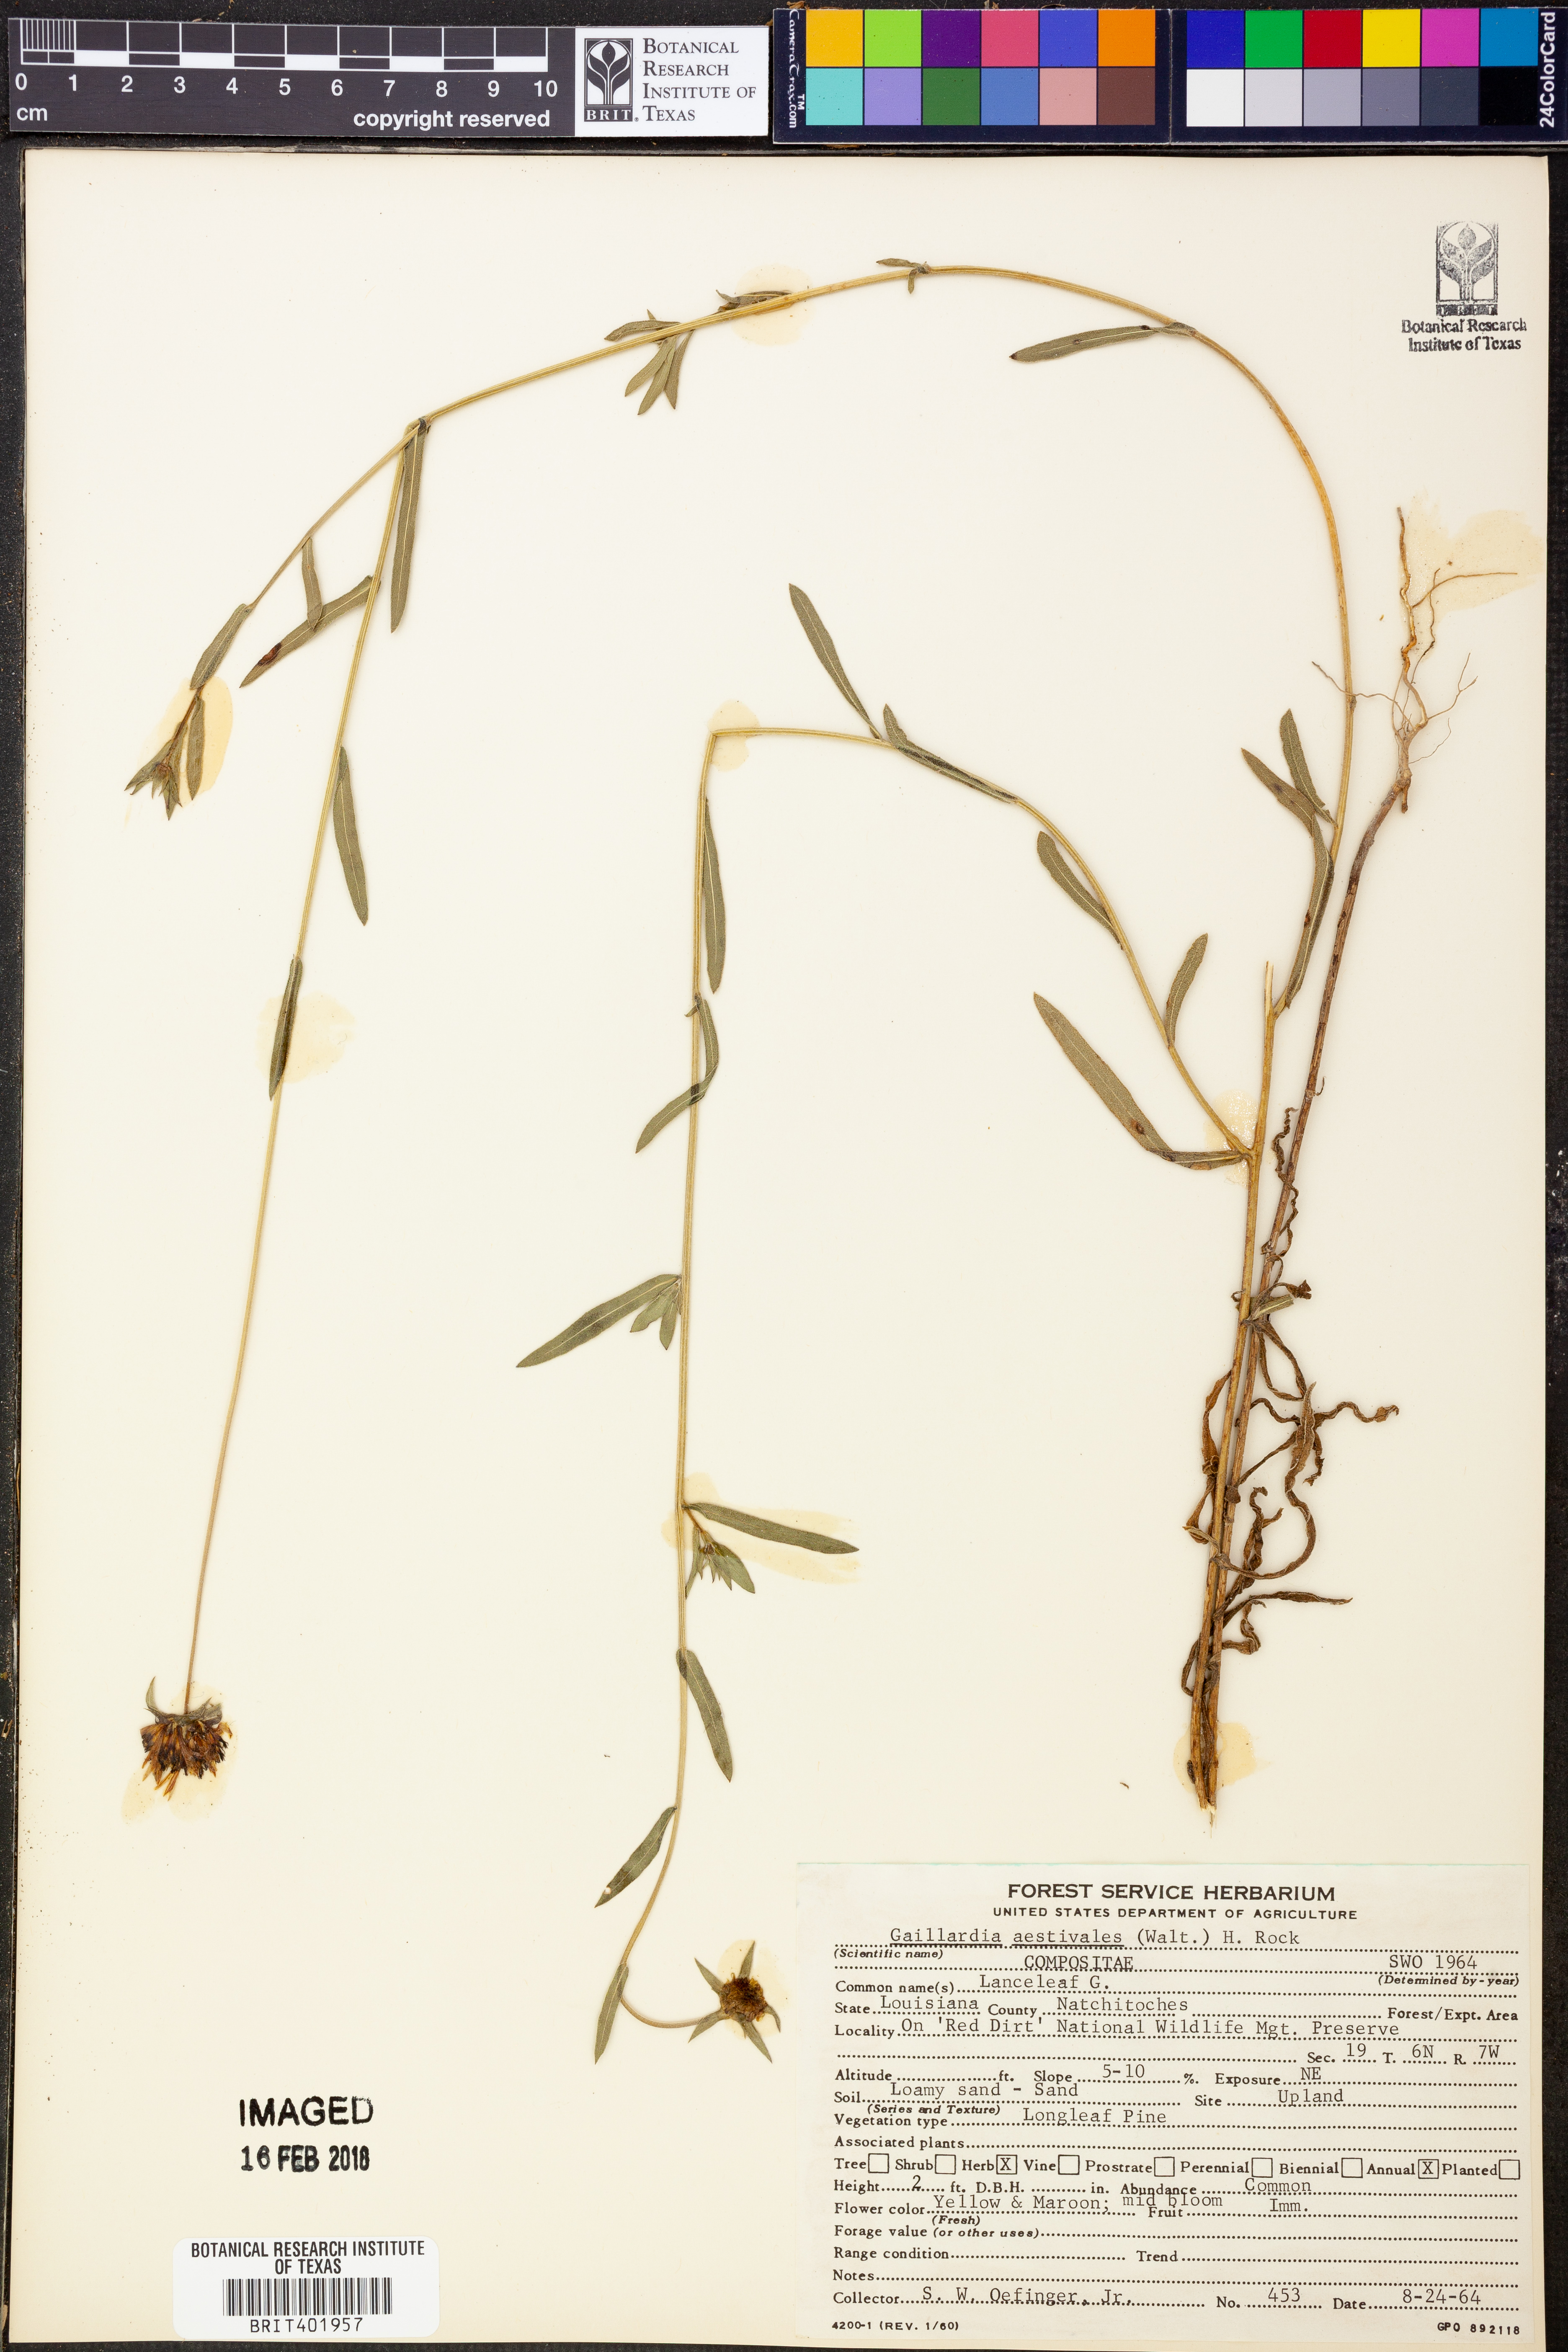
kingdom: Plantae
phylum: Tracheophyta
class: Magnoliopsida
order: Asterales
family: Asteraceae
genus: Gaillardia
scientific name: Gaillardia aestivalis
